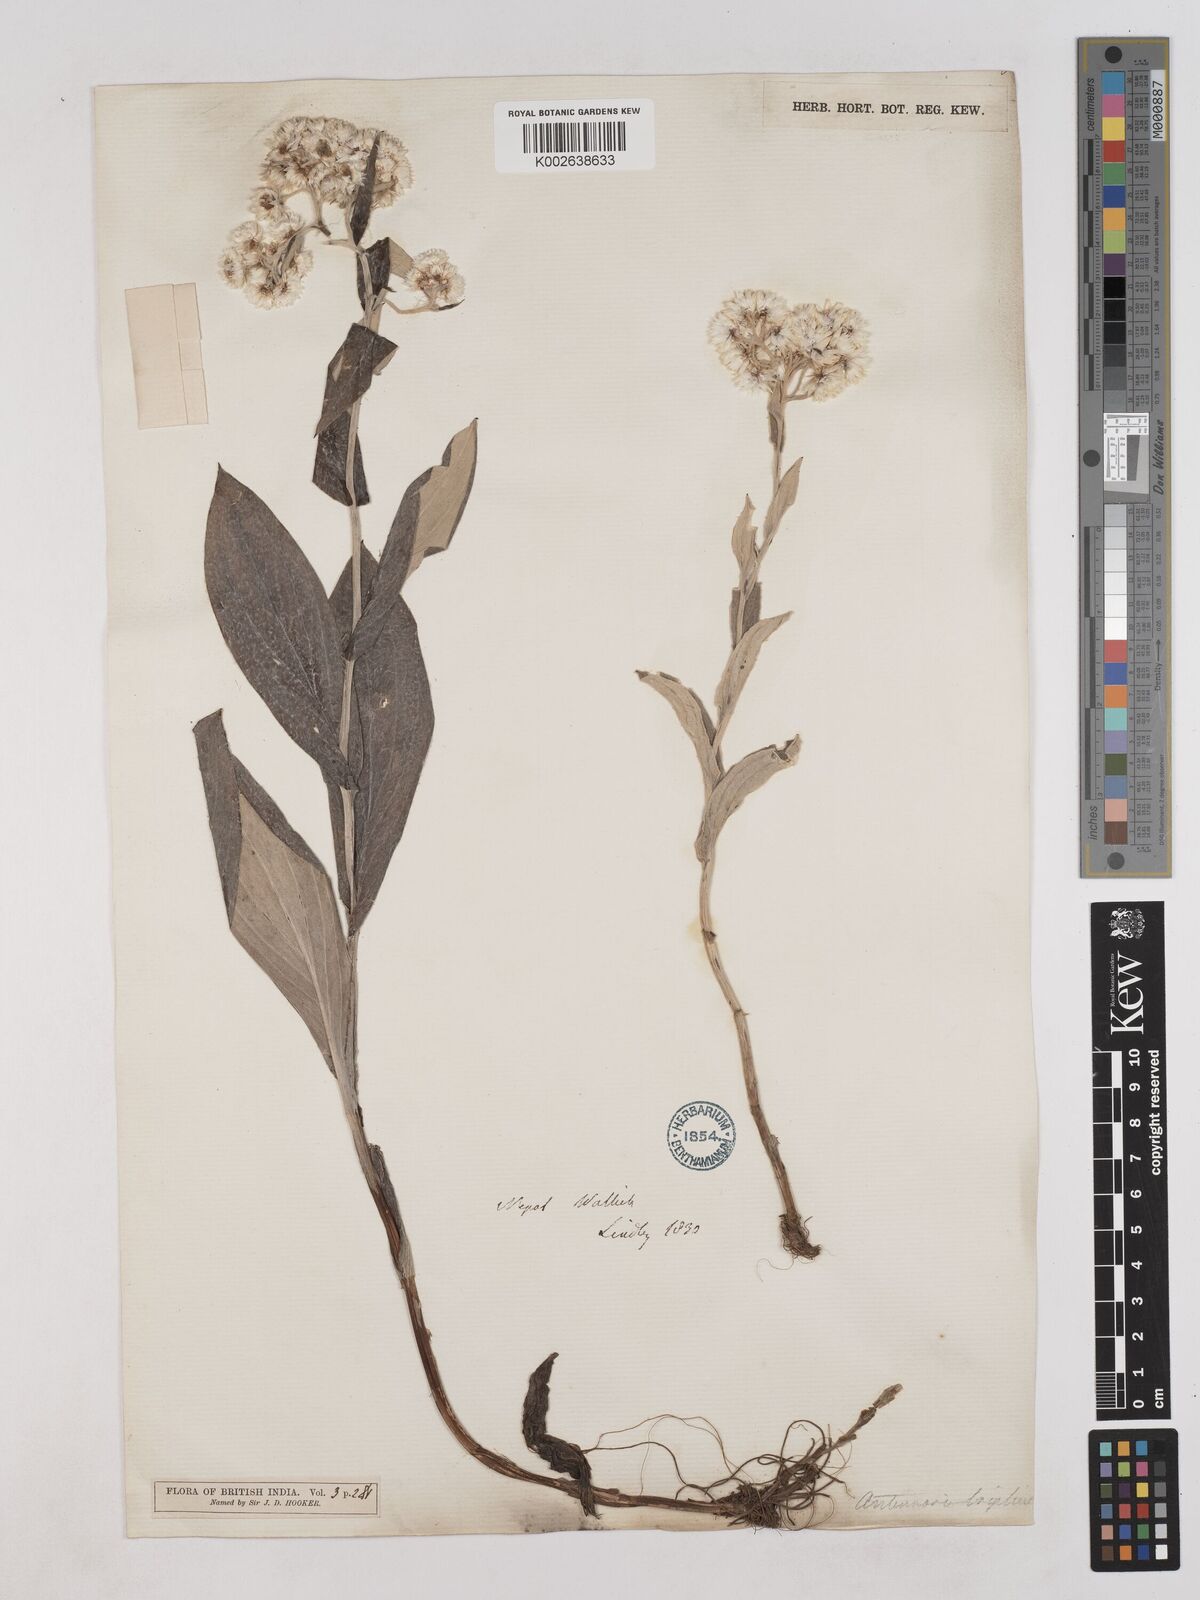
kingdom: Plantae
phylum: Tracheophyta
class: Magnoliopsida
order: Asterales
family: Asteraceae
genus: Anaphalis
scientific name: Anaphalis triplinervis
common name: Pearly everlasting
